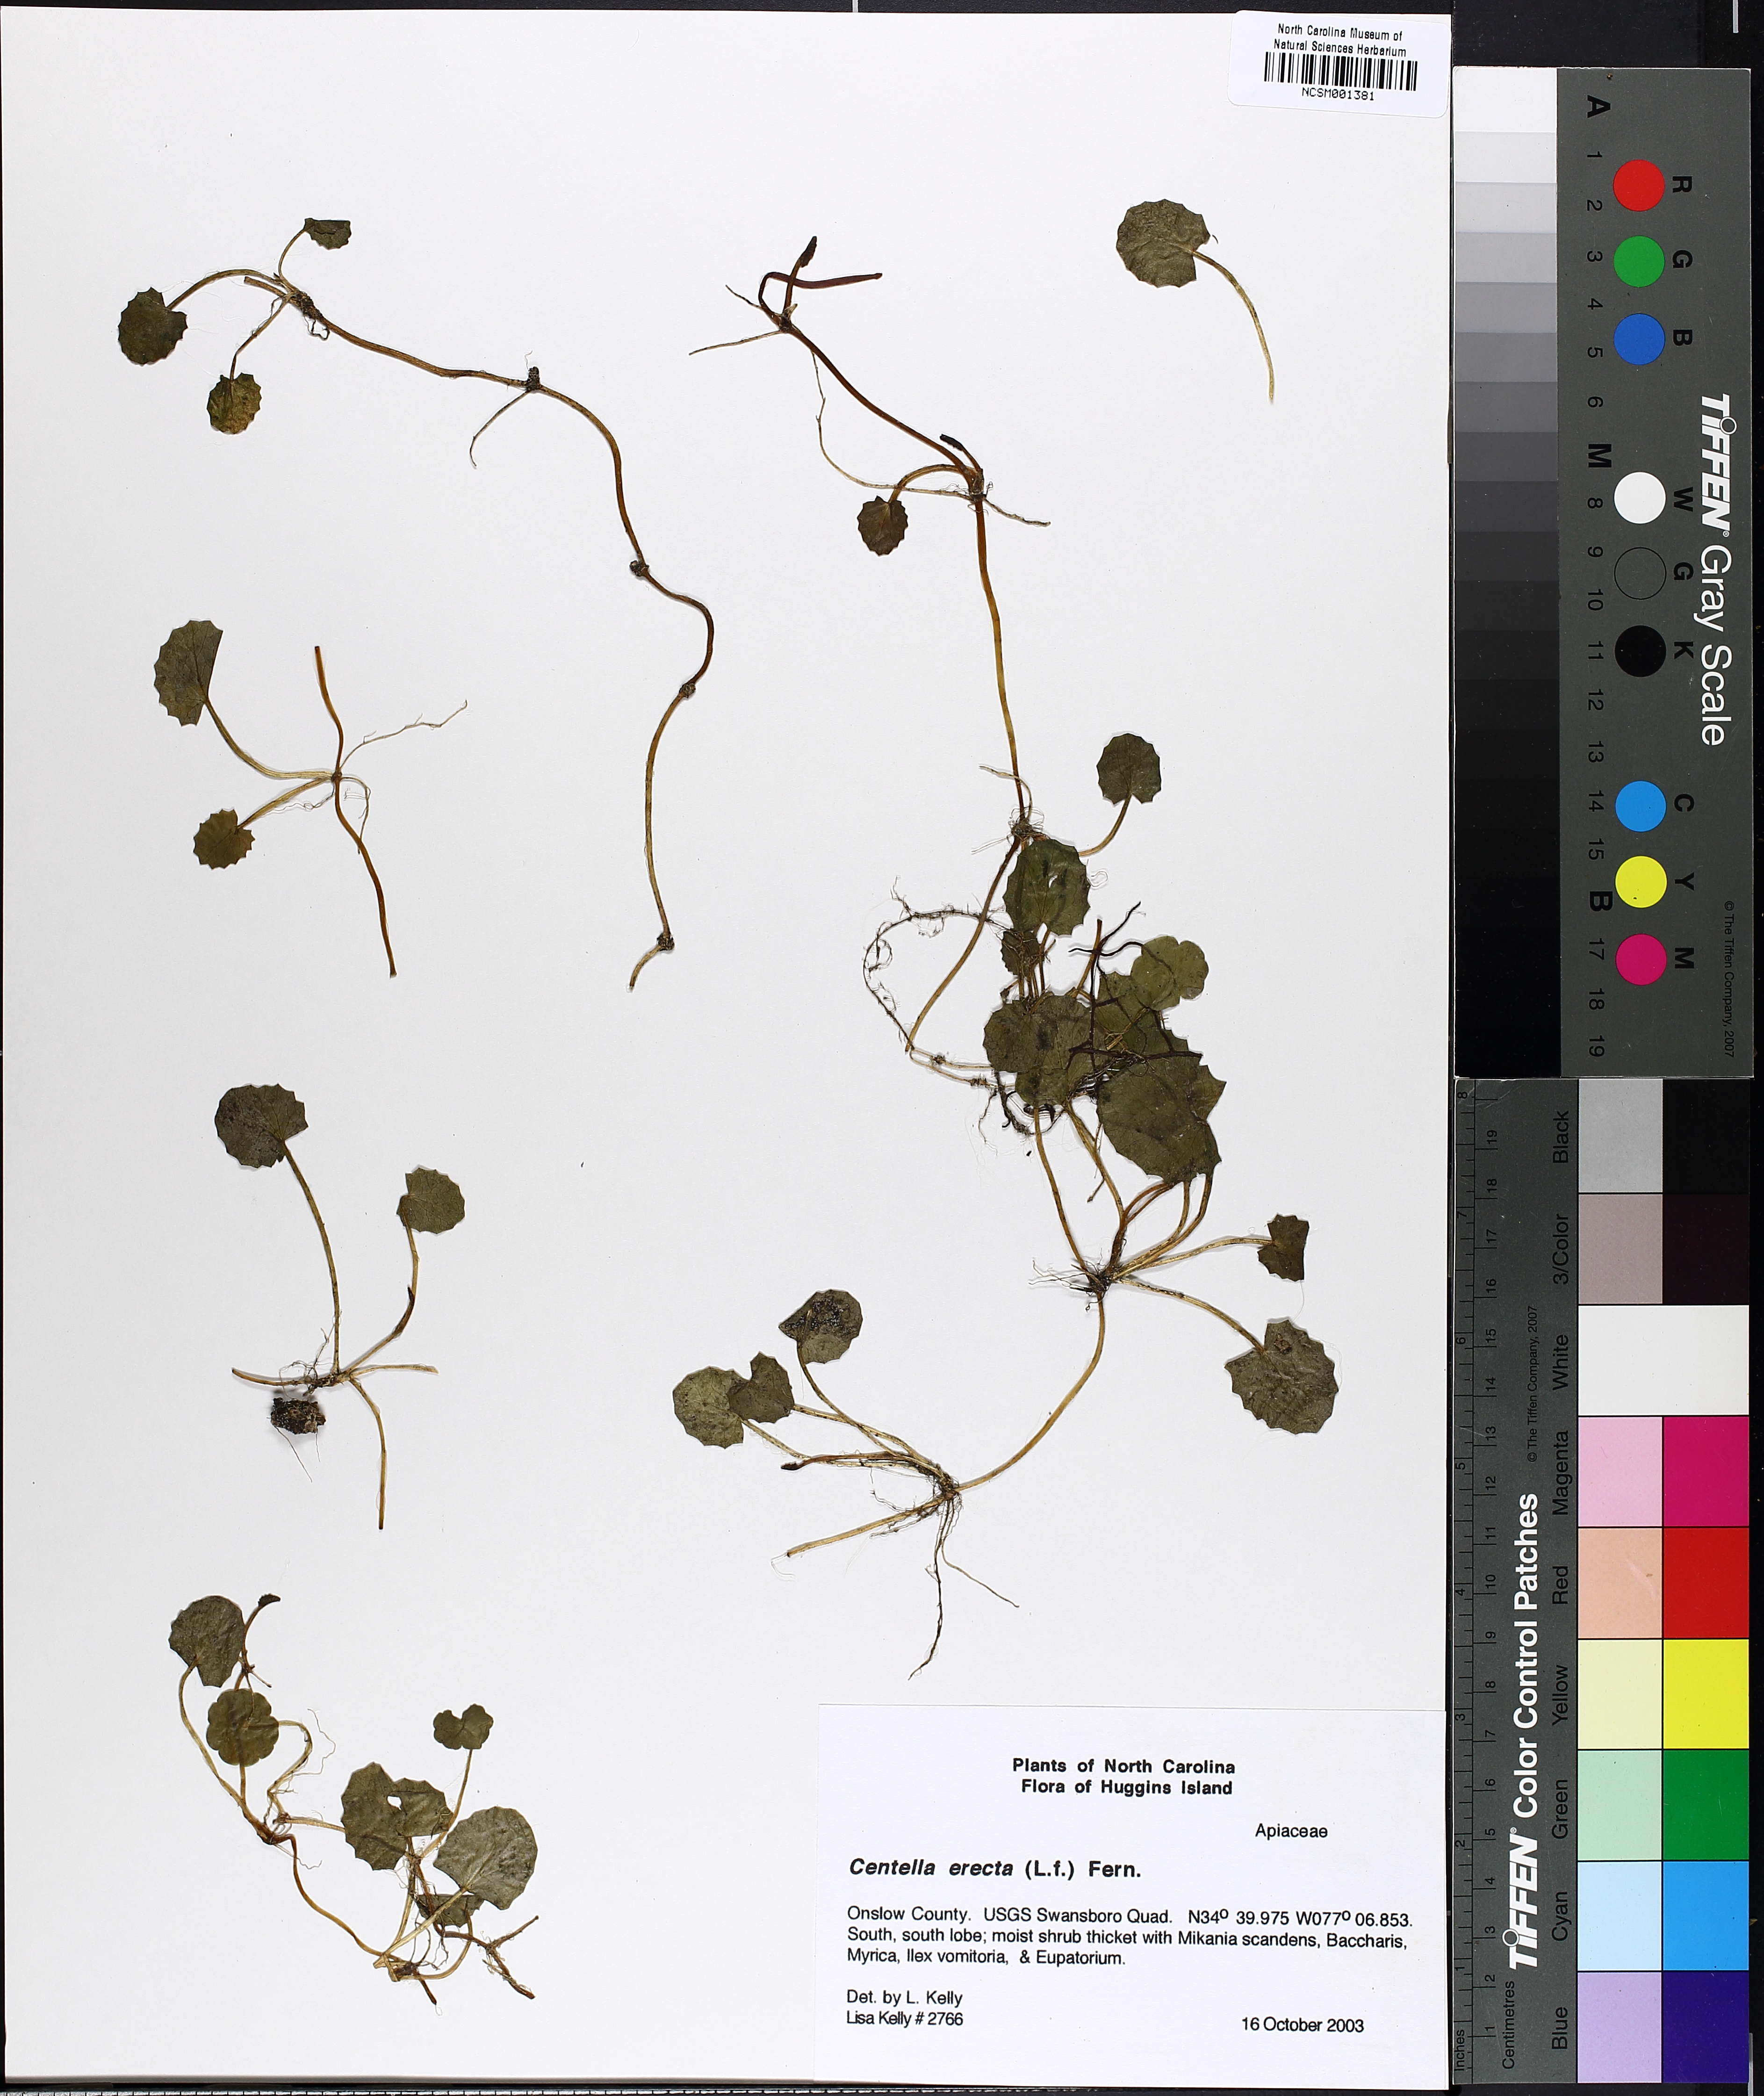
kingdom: Plantae
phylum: Tracheophyta
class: Magnoliopsida
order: Apiales
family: Apiaceae
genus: Centella
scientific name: Centella erecta
